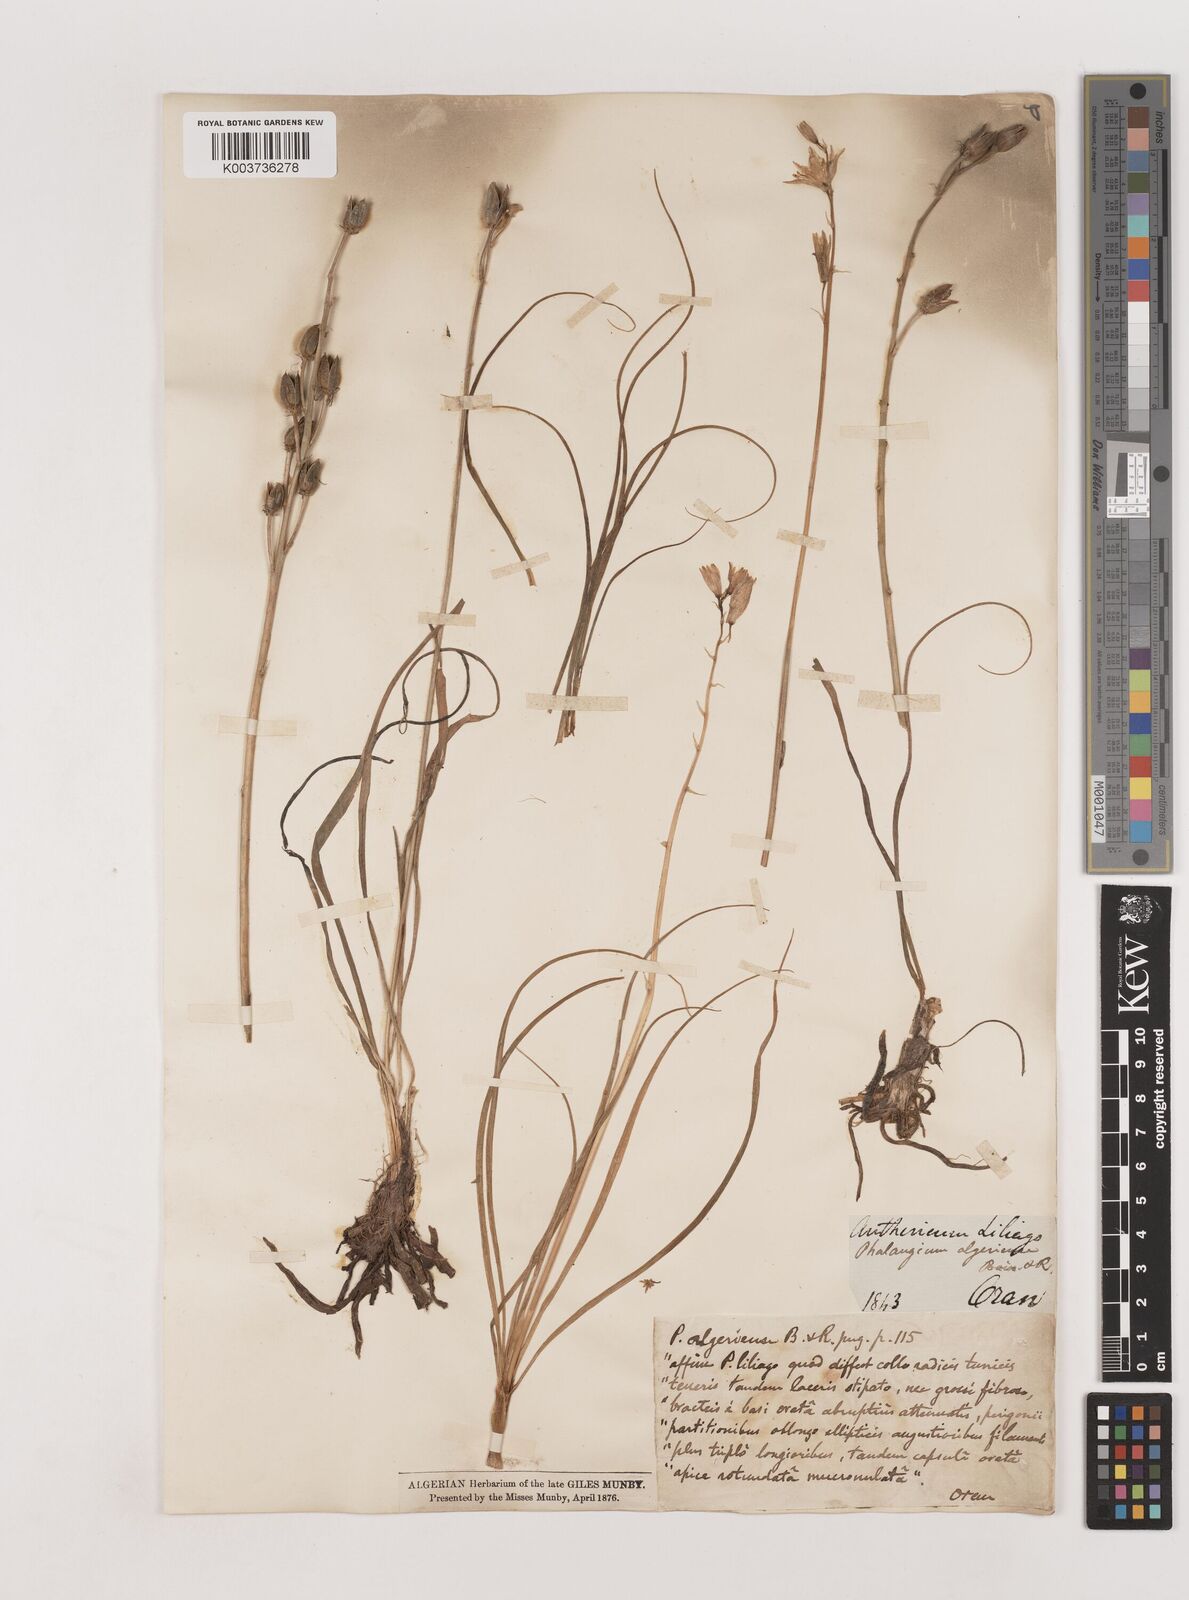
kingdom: Plantae
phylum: Tracheophyta
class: Liliopsida
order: Asparagales
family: Asparagaceae
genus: Anthericum
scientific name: Anthericum liliago
